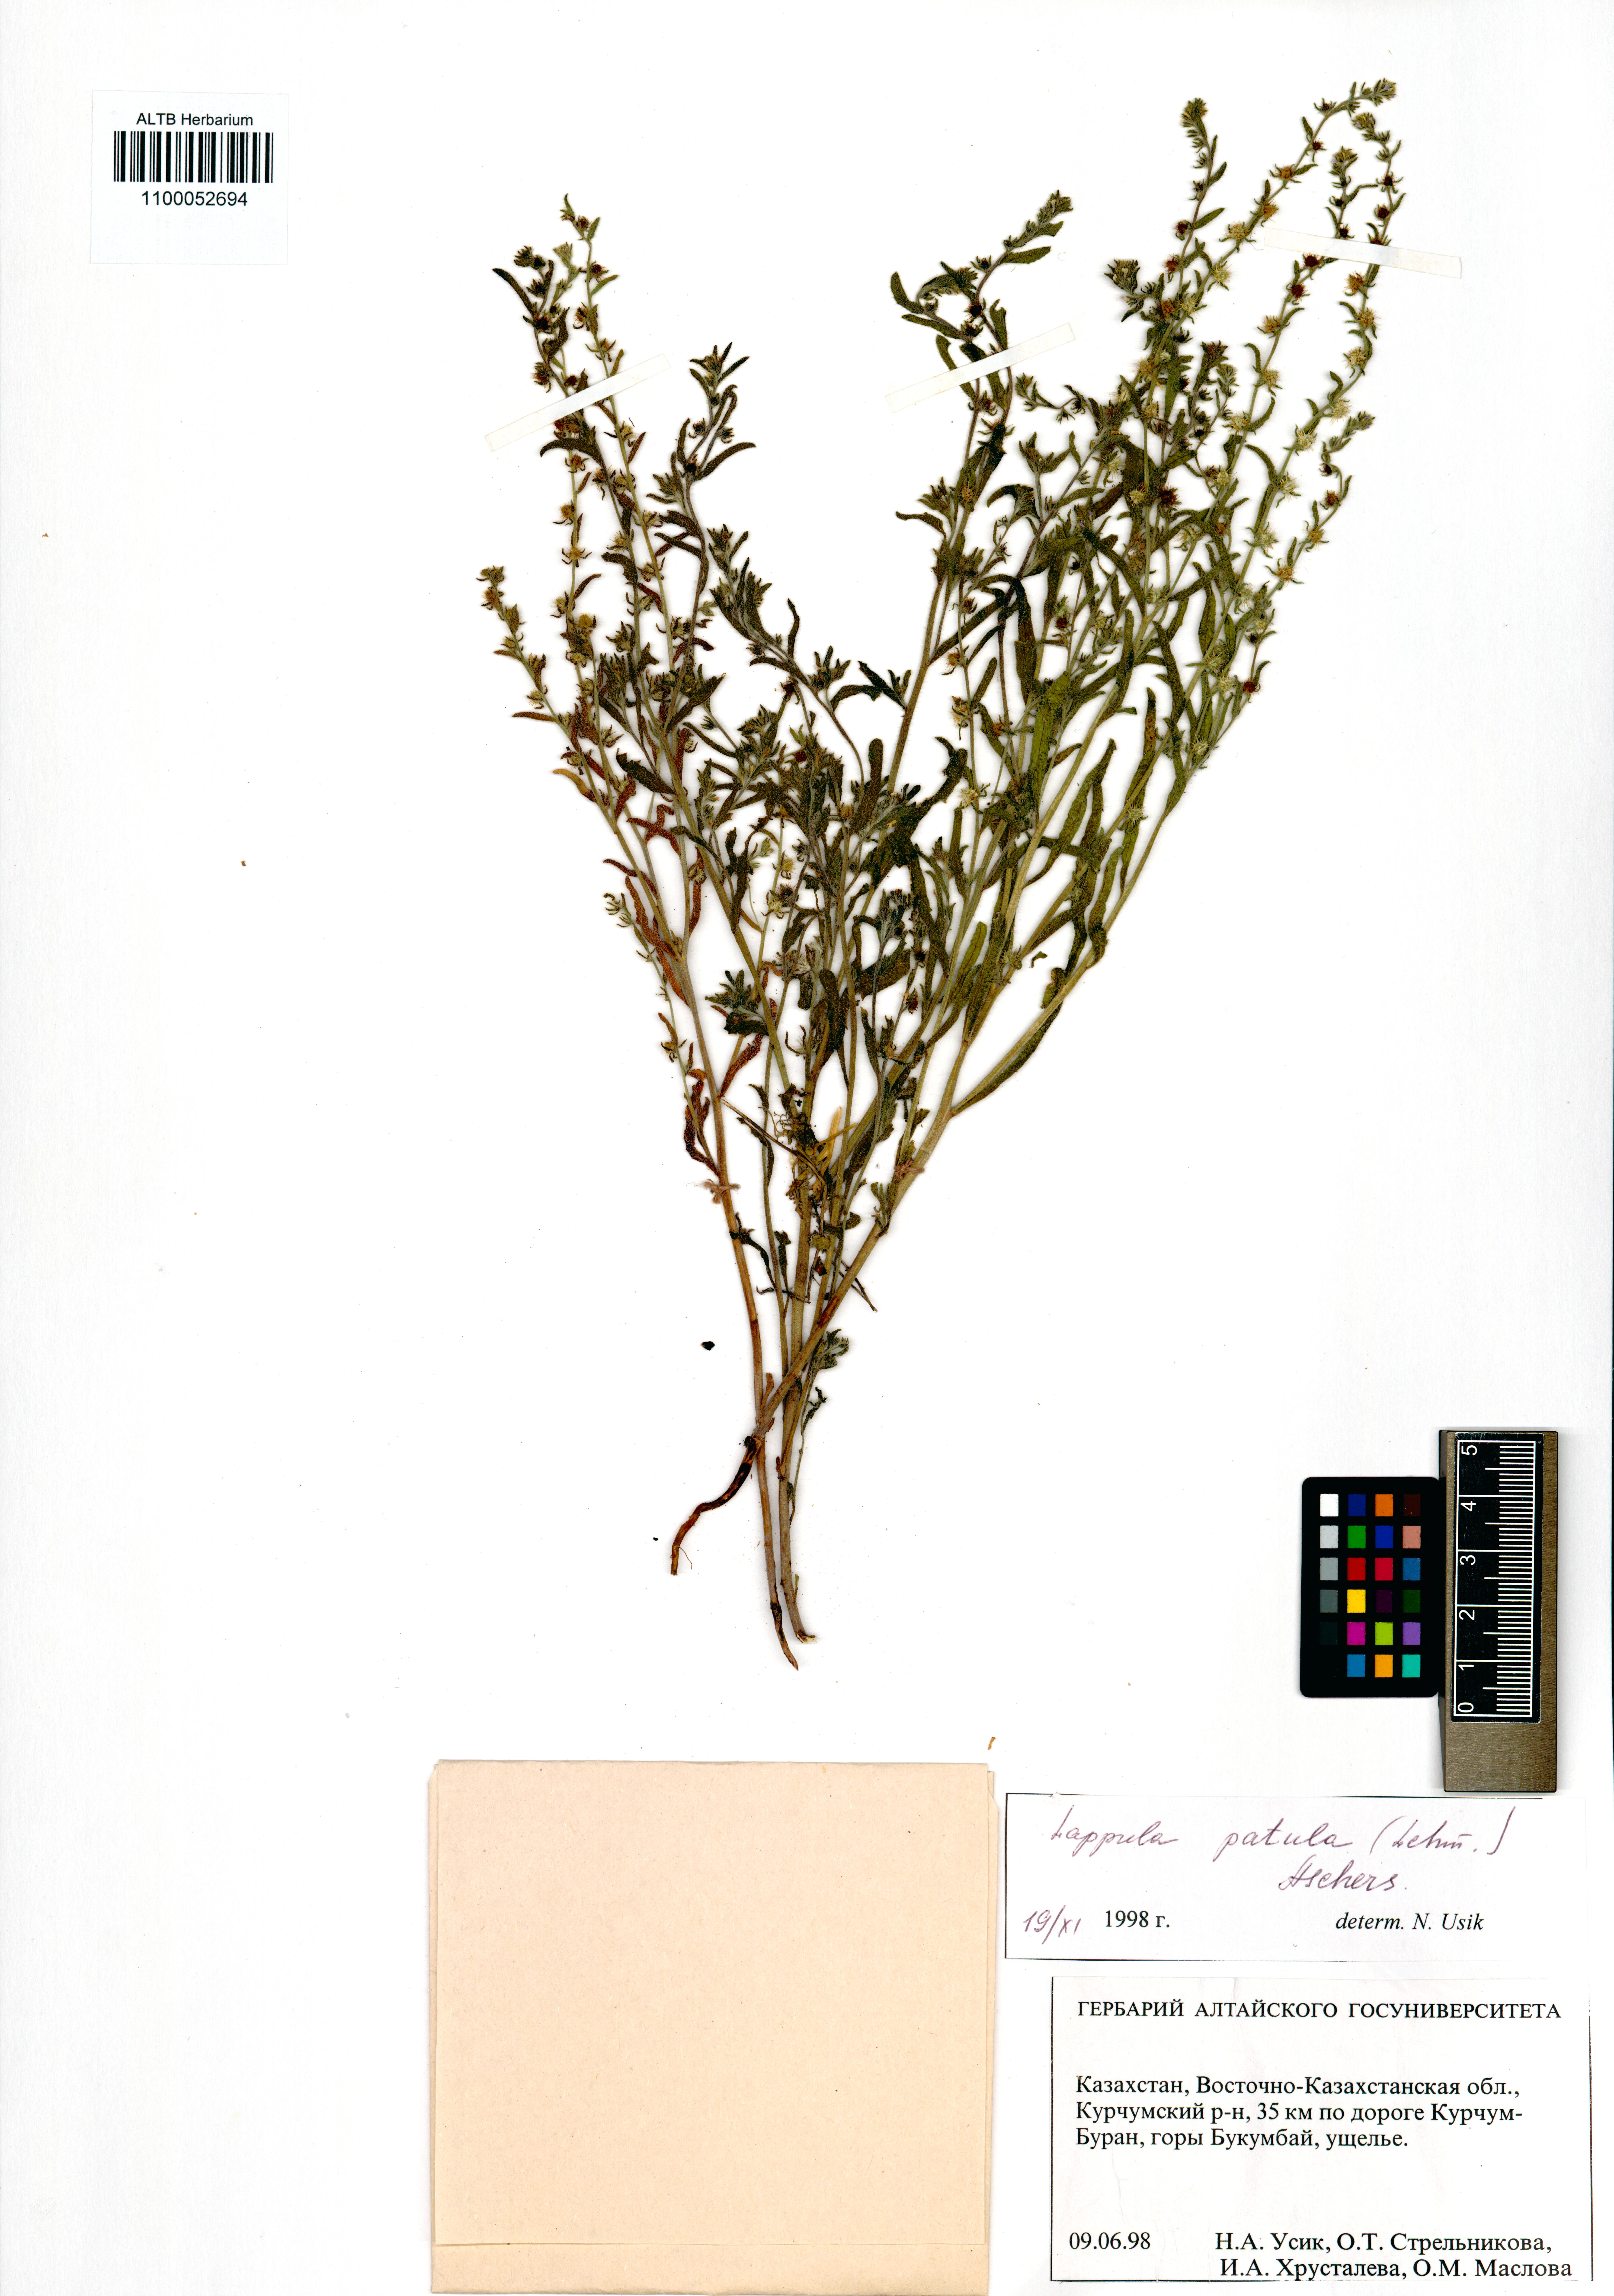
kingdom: Plantae
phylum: Tracheophyta
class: Magnoliopsida
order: Boraginales
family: Boraginaceae
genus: Lappula
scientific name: Lappula patula
